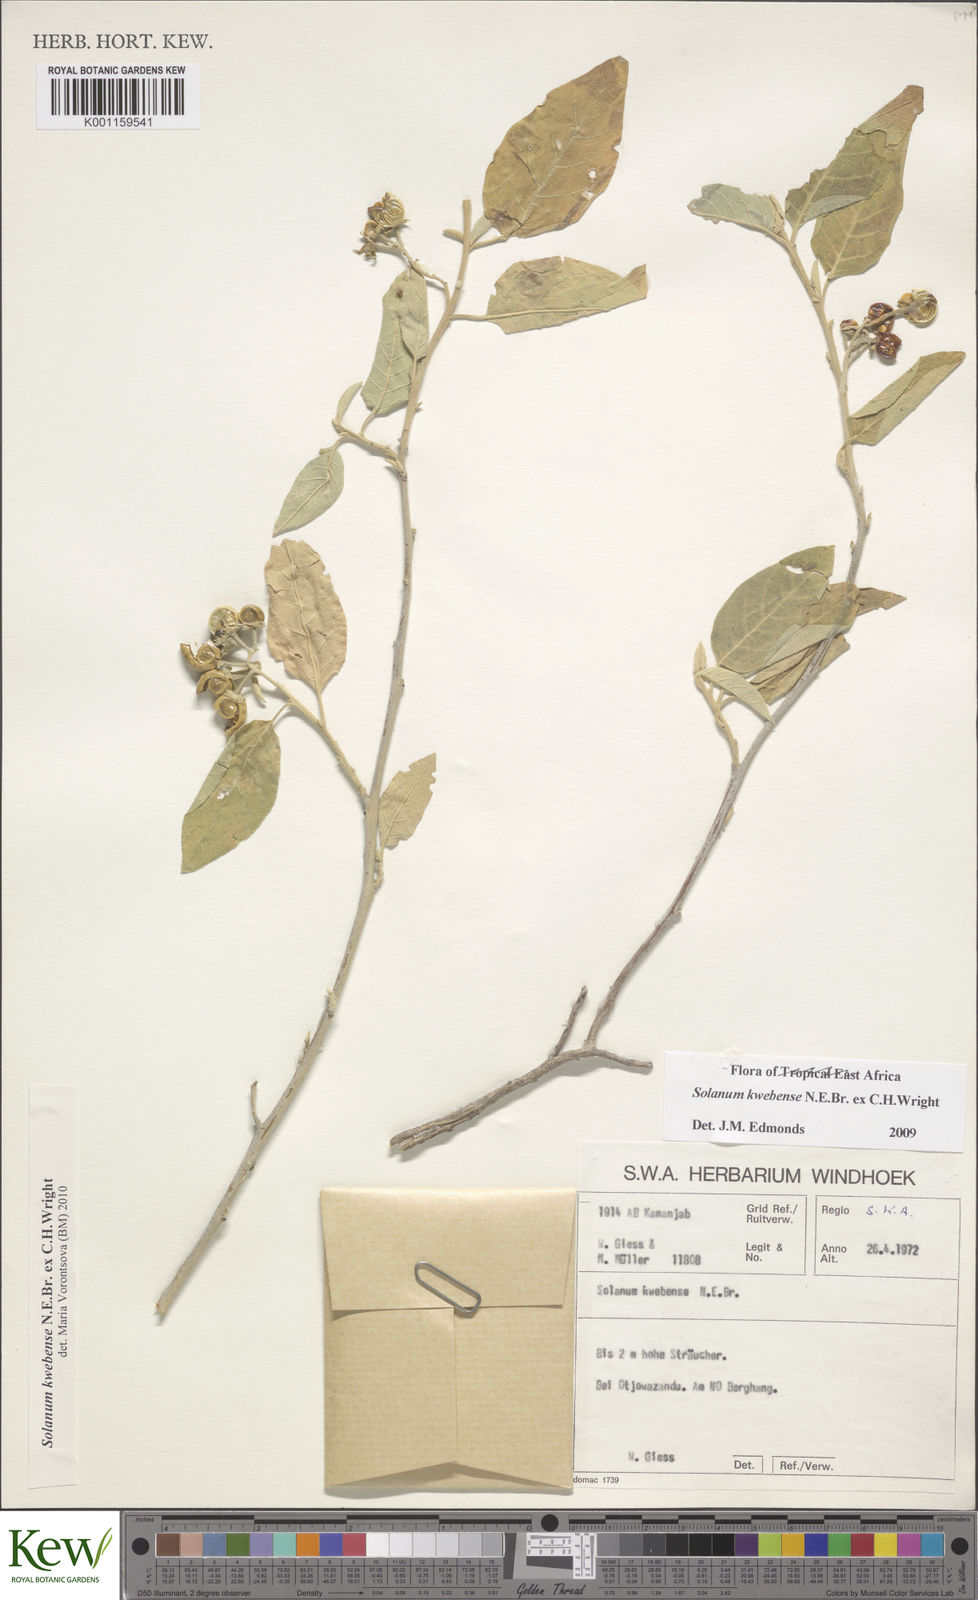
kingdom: Plantae
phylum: Tracheophyta
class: Magnoliopsida
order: Solanales
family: Solanaceae
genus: Solanum
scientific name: Solanum tettense
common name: Mozambique bitter apple
